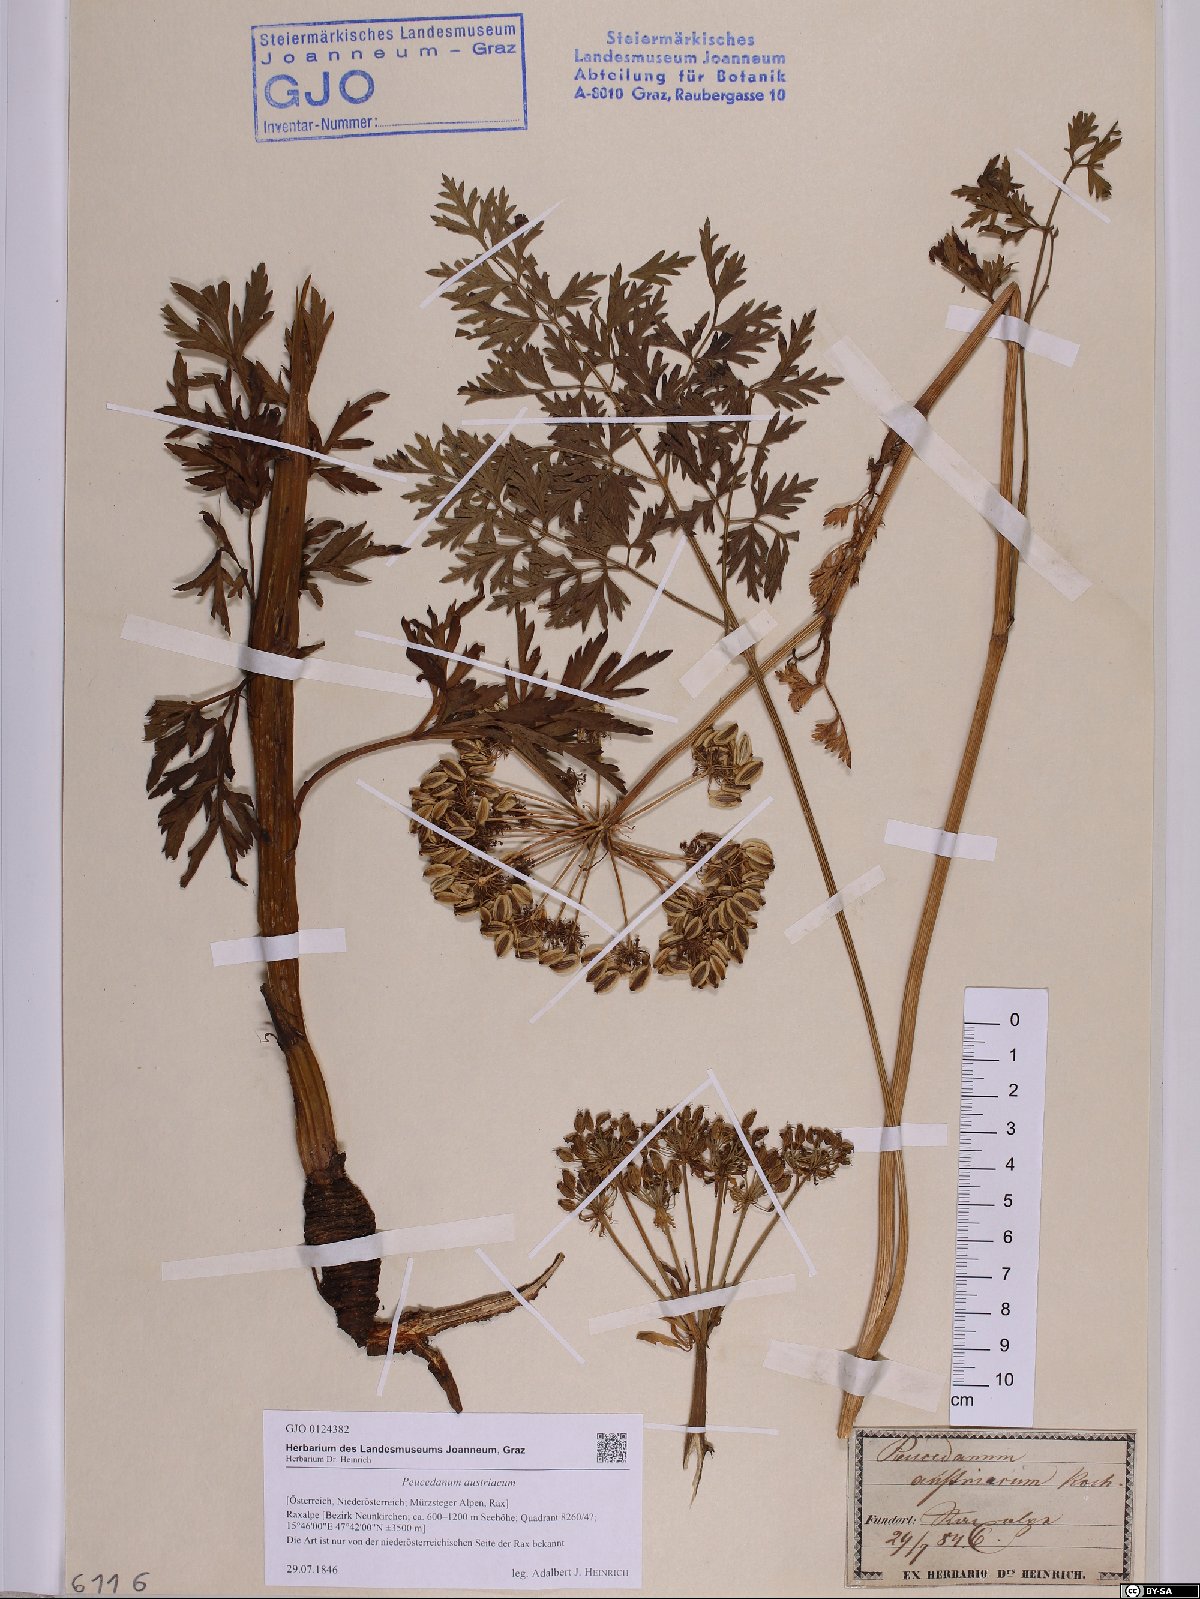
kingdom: Plantae
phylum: Tracheophyta
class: Magnoliopsida
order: Apiales
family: Apiaceae
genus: Peucedanum
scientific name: Peucedanum austriacum
